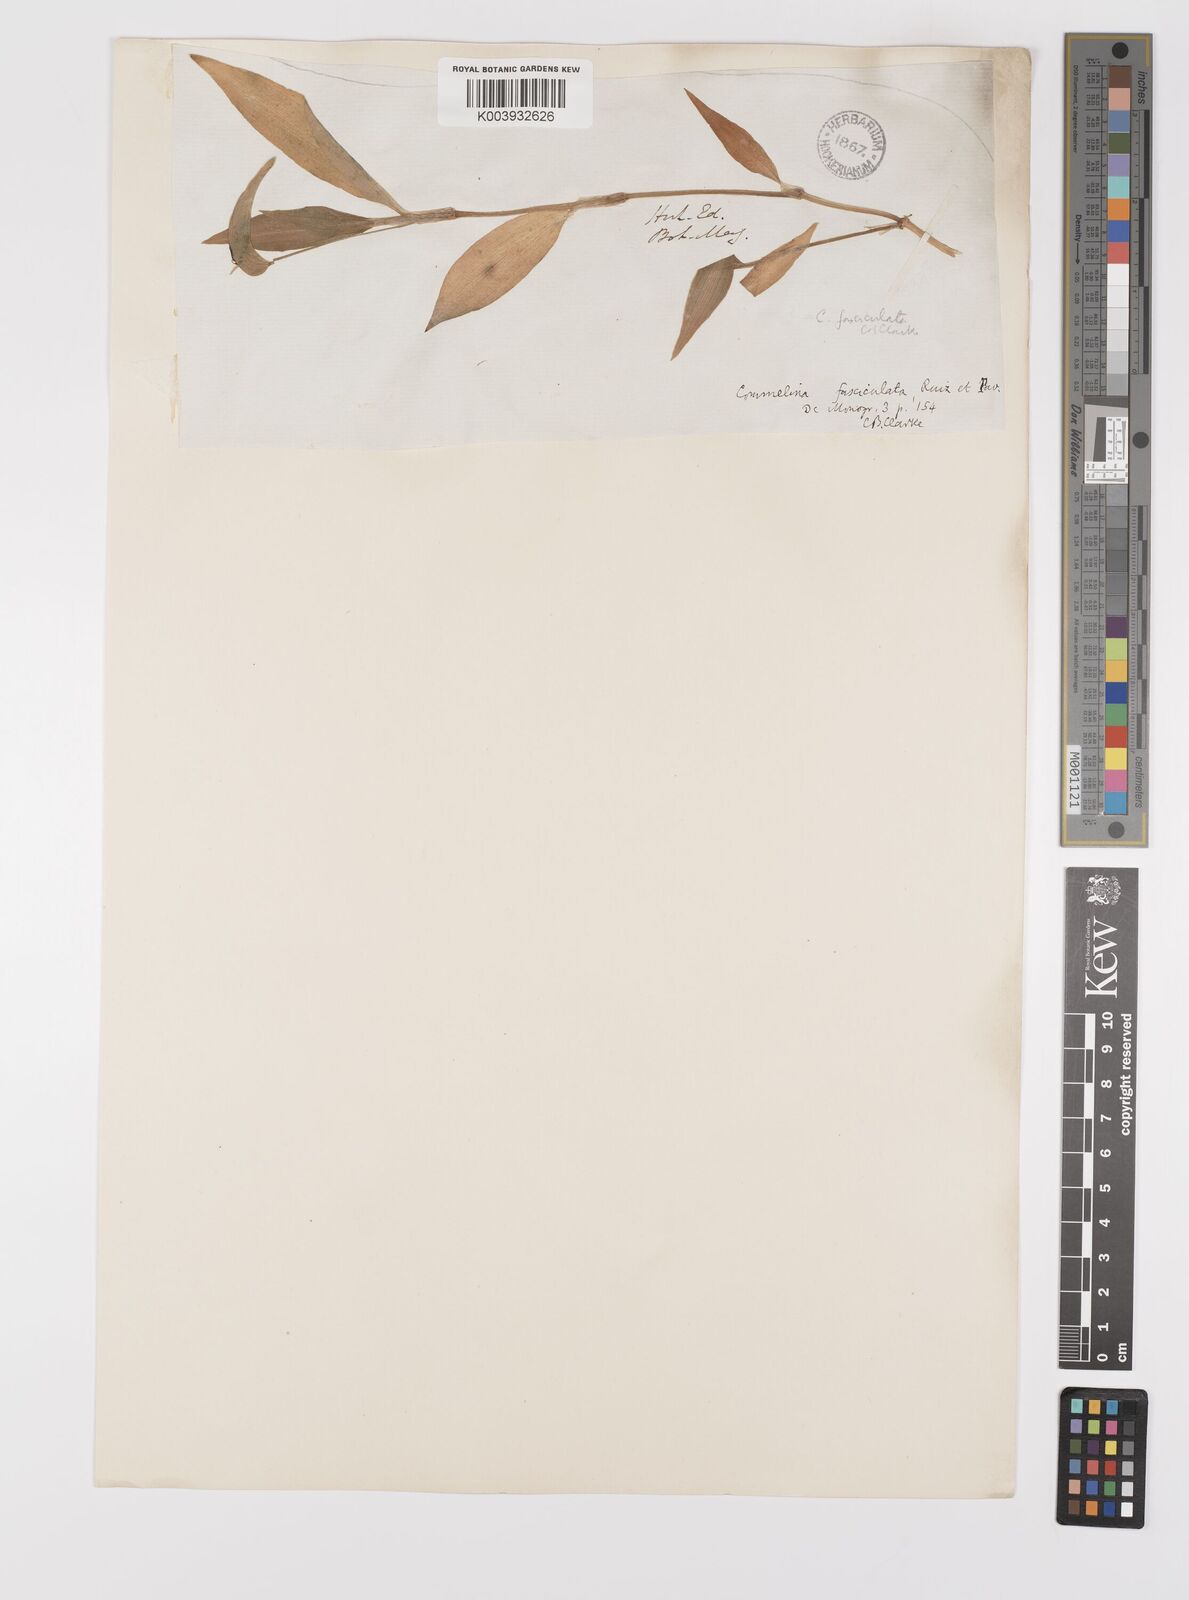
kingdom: Plantae
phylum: Tracheophyta
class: Liliopsida
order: Commelinales
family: Commelinaceae
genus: Commelina
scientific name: Commelina tuberosa
